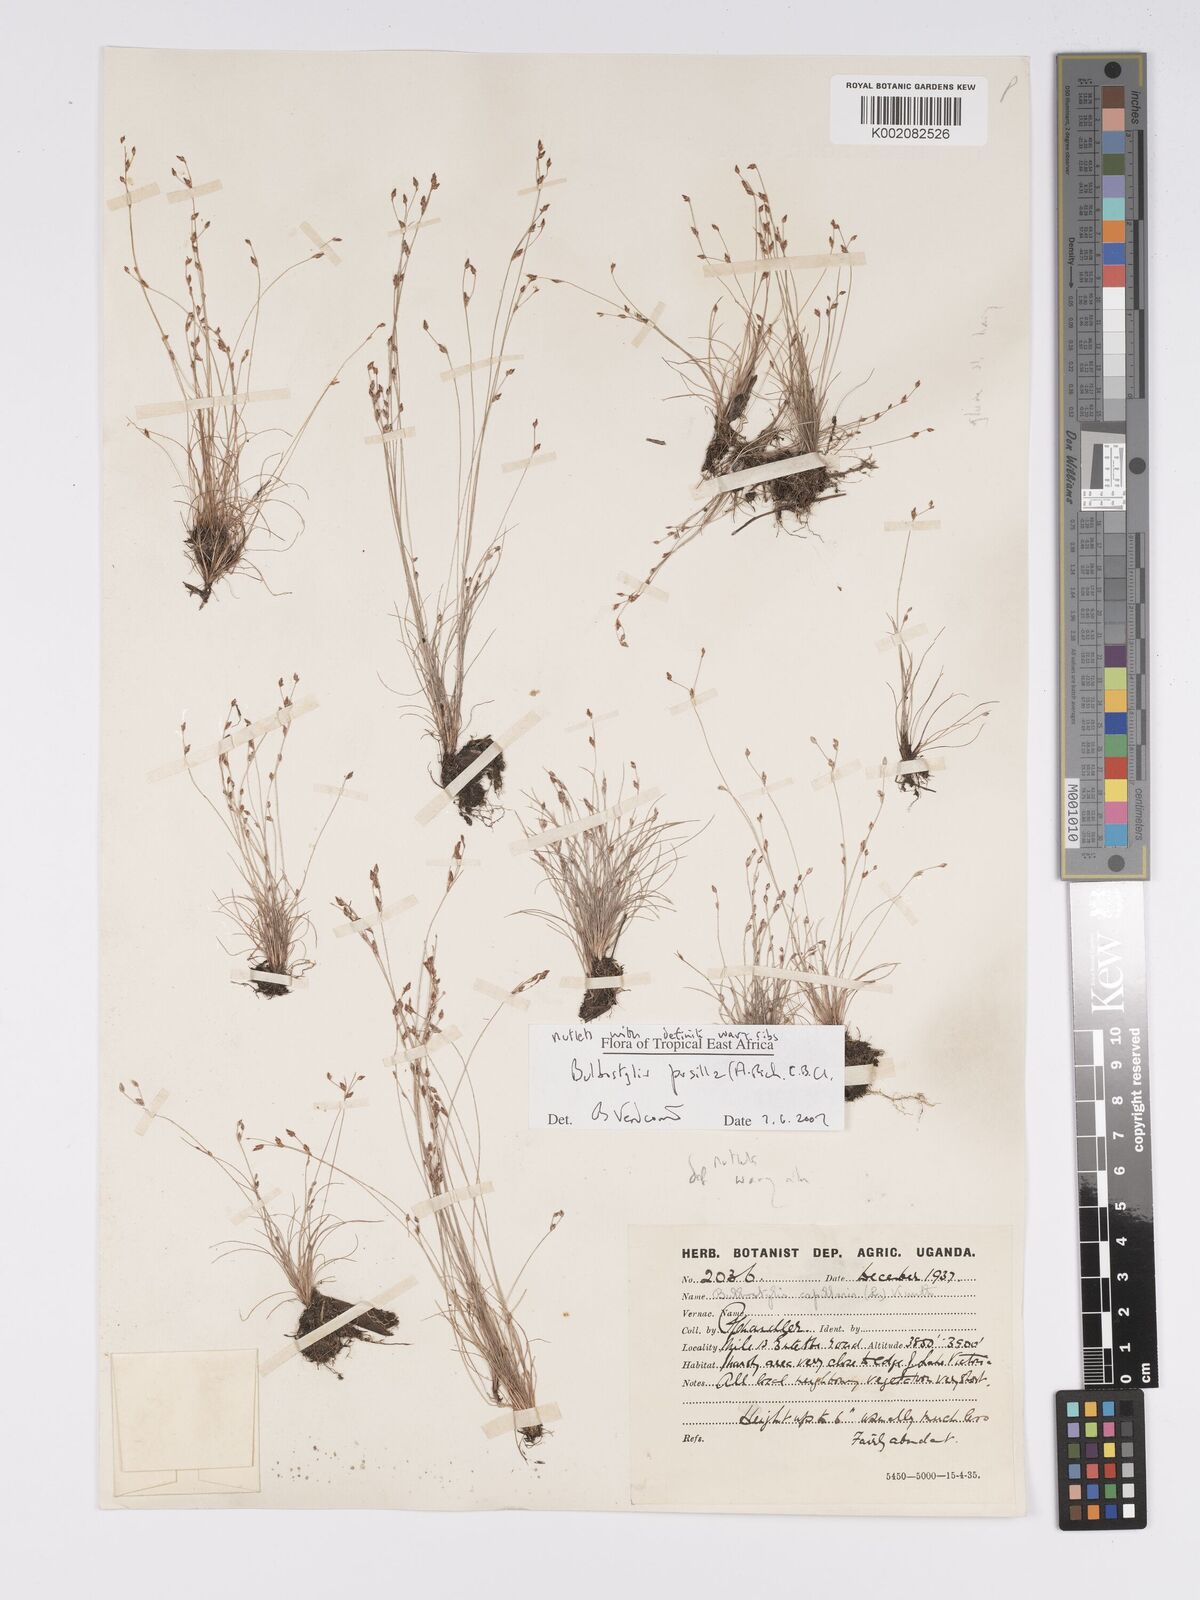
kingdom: Plantae
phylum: Tracheophyta
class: Liliopsida
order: Poales
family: Cyperaceae
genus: Bulbostylis
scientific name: Bulbostylis pusilla
